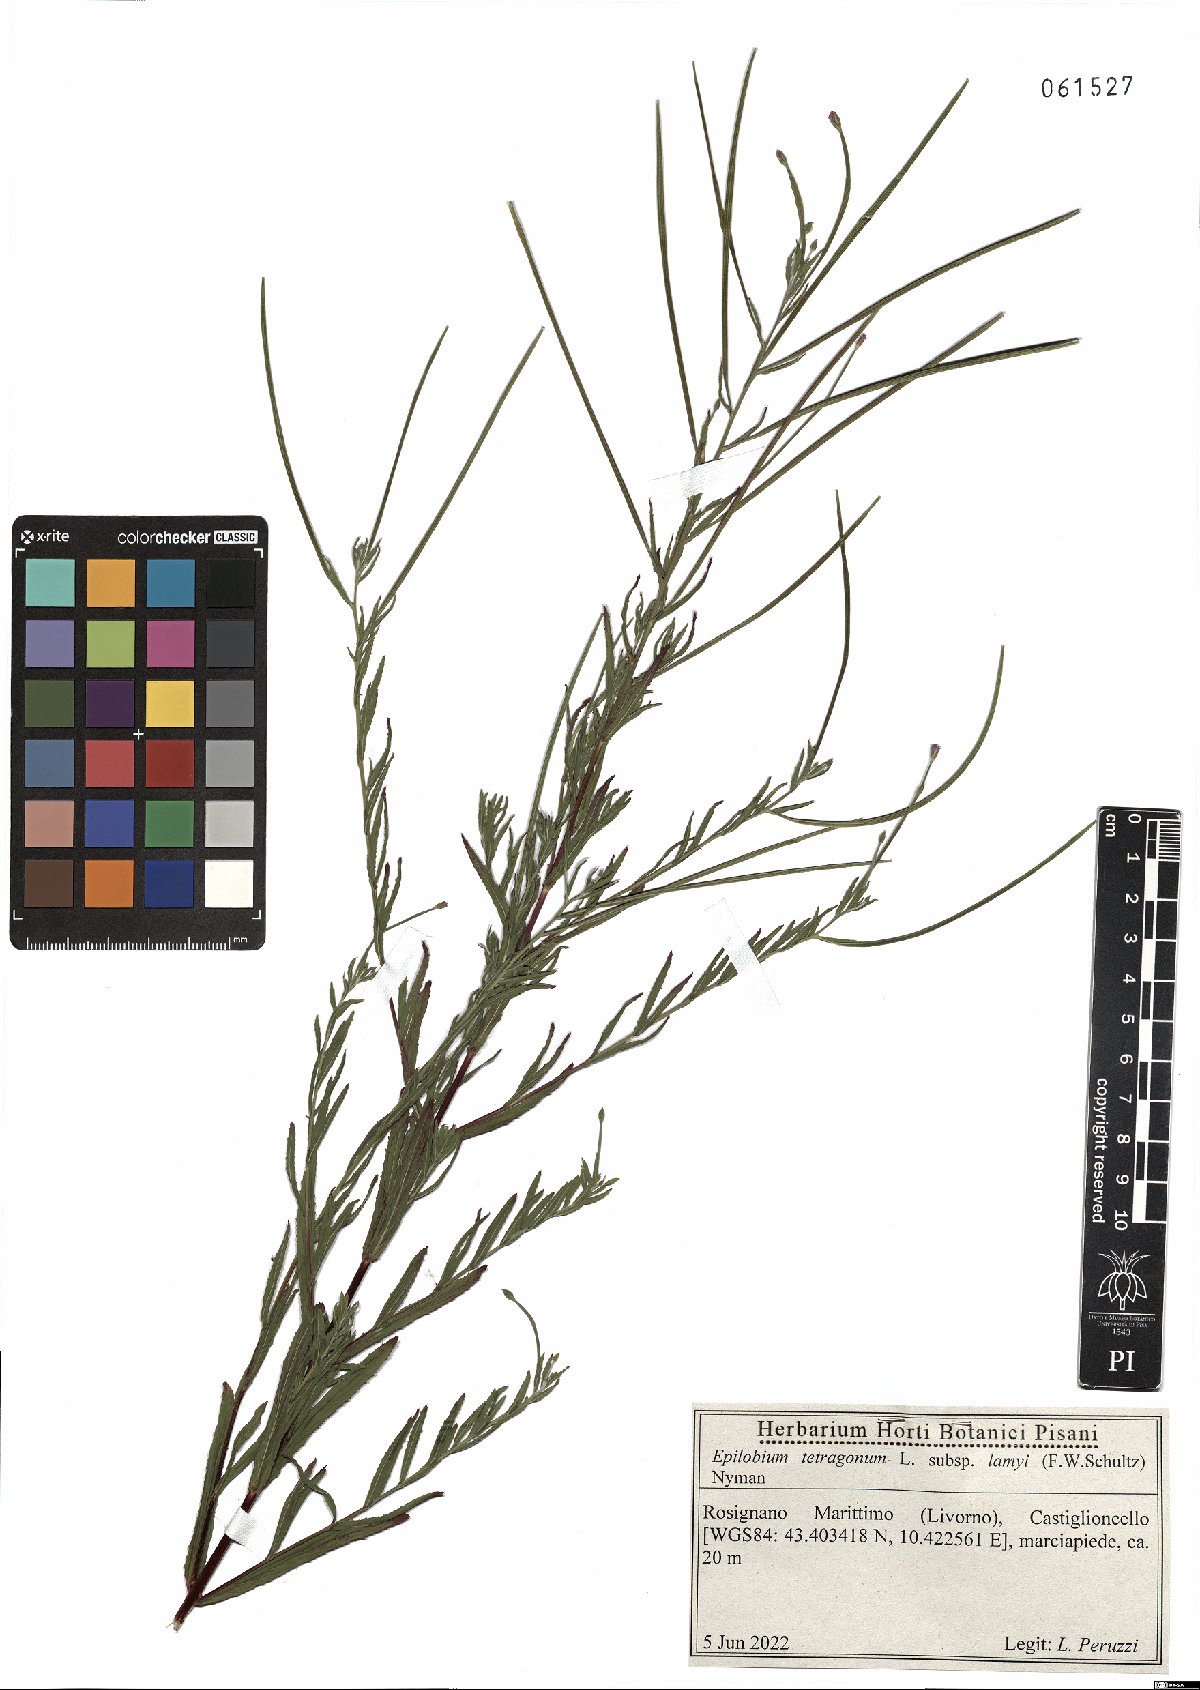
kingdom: Plantae
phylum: Tracheophyta
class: Magnoliopsida
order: Myrtales
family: Onagraceae
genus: Epilobium
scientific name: Epilobium lamyi
